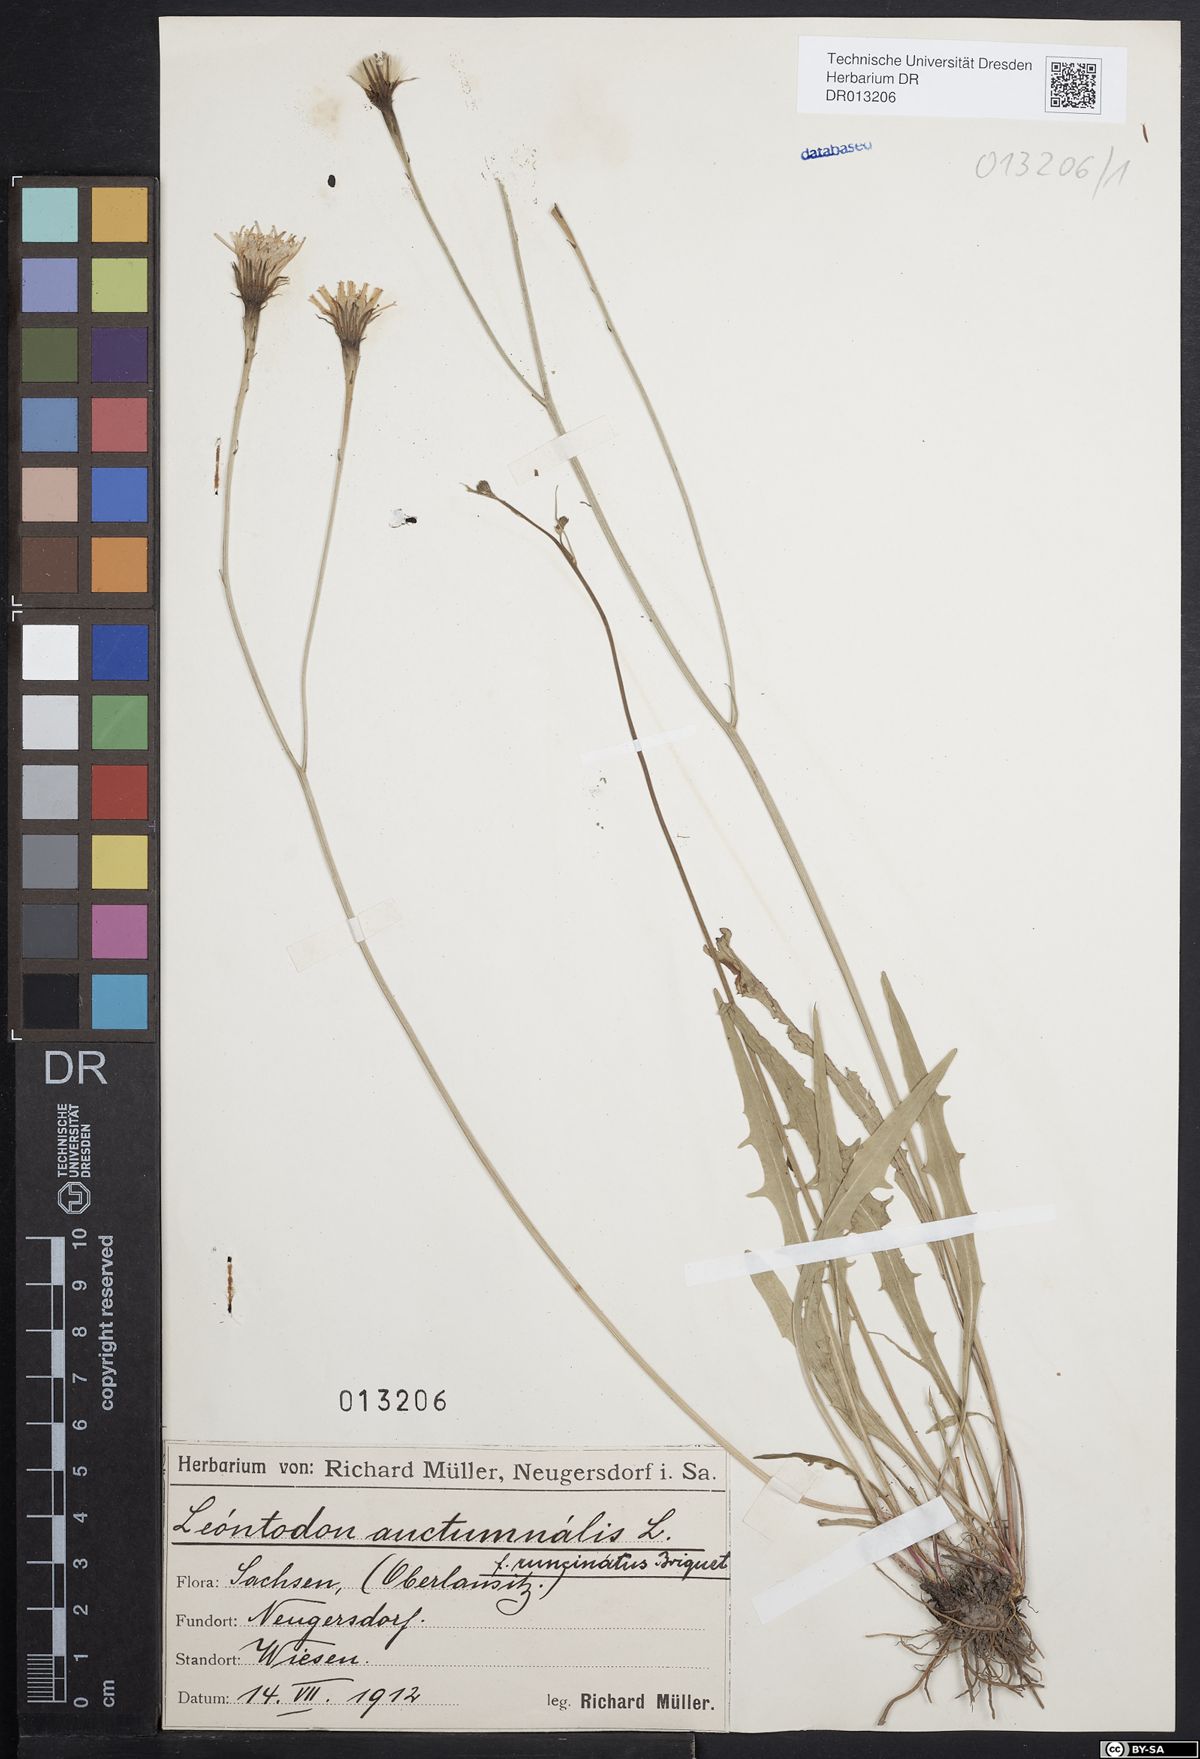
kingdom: Plantae
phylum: Tracheophyta
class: Magnoliopsida
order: Asterales
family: Asteraceae
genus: Scorzoneroides
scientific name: Scorzoneroides autumnalis
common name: Autumn hawkbit
